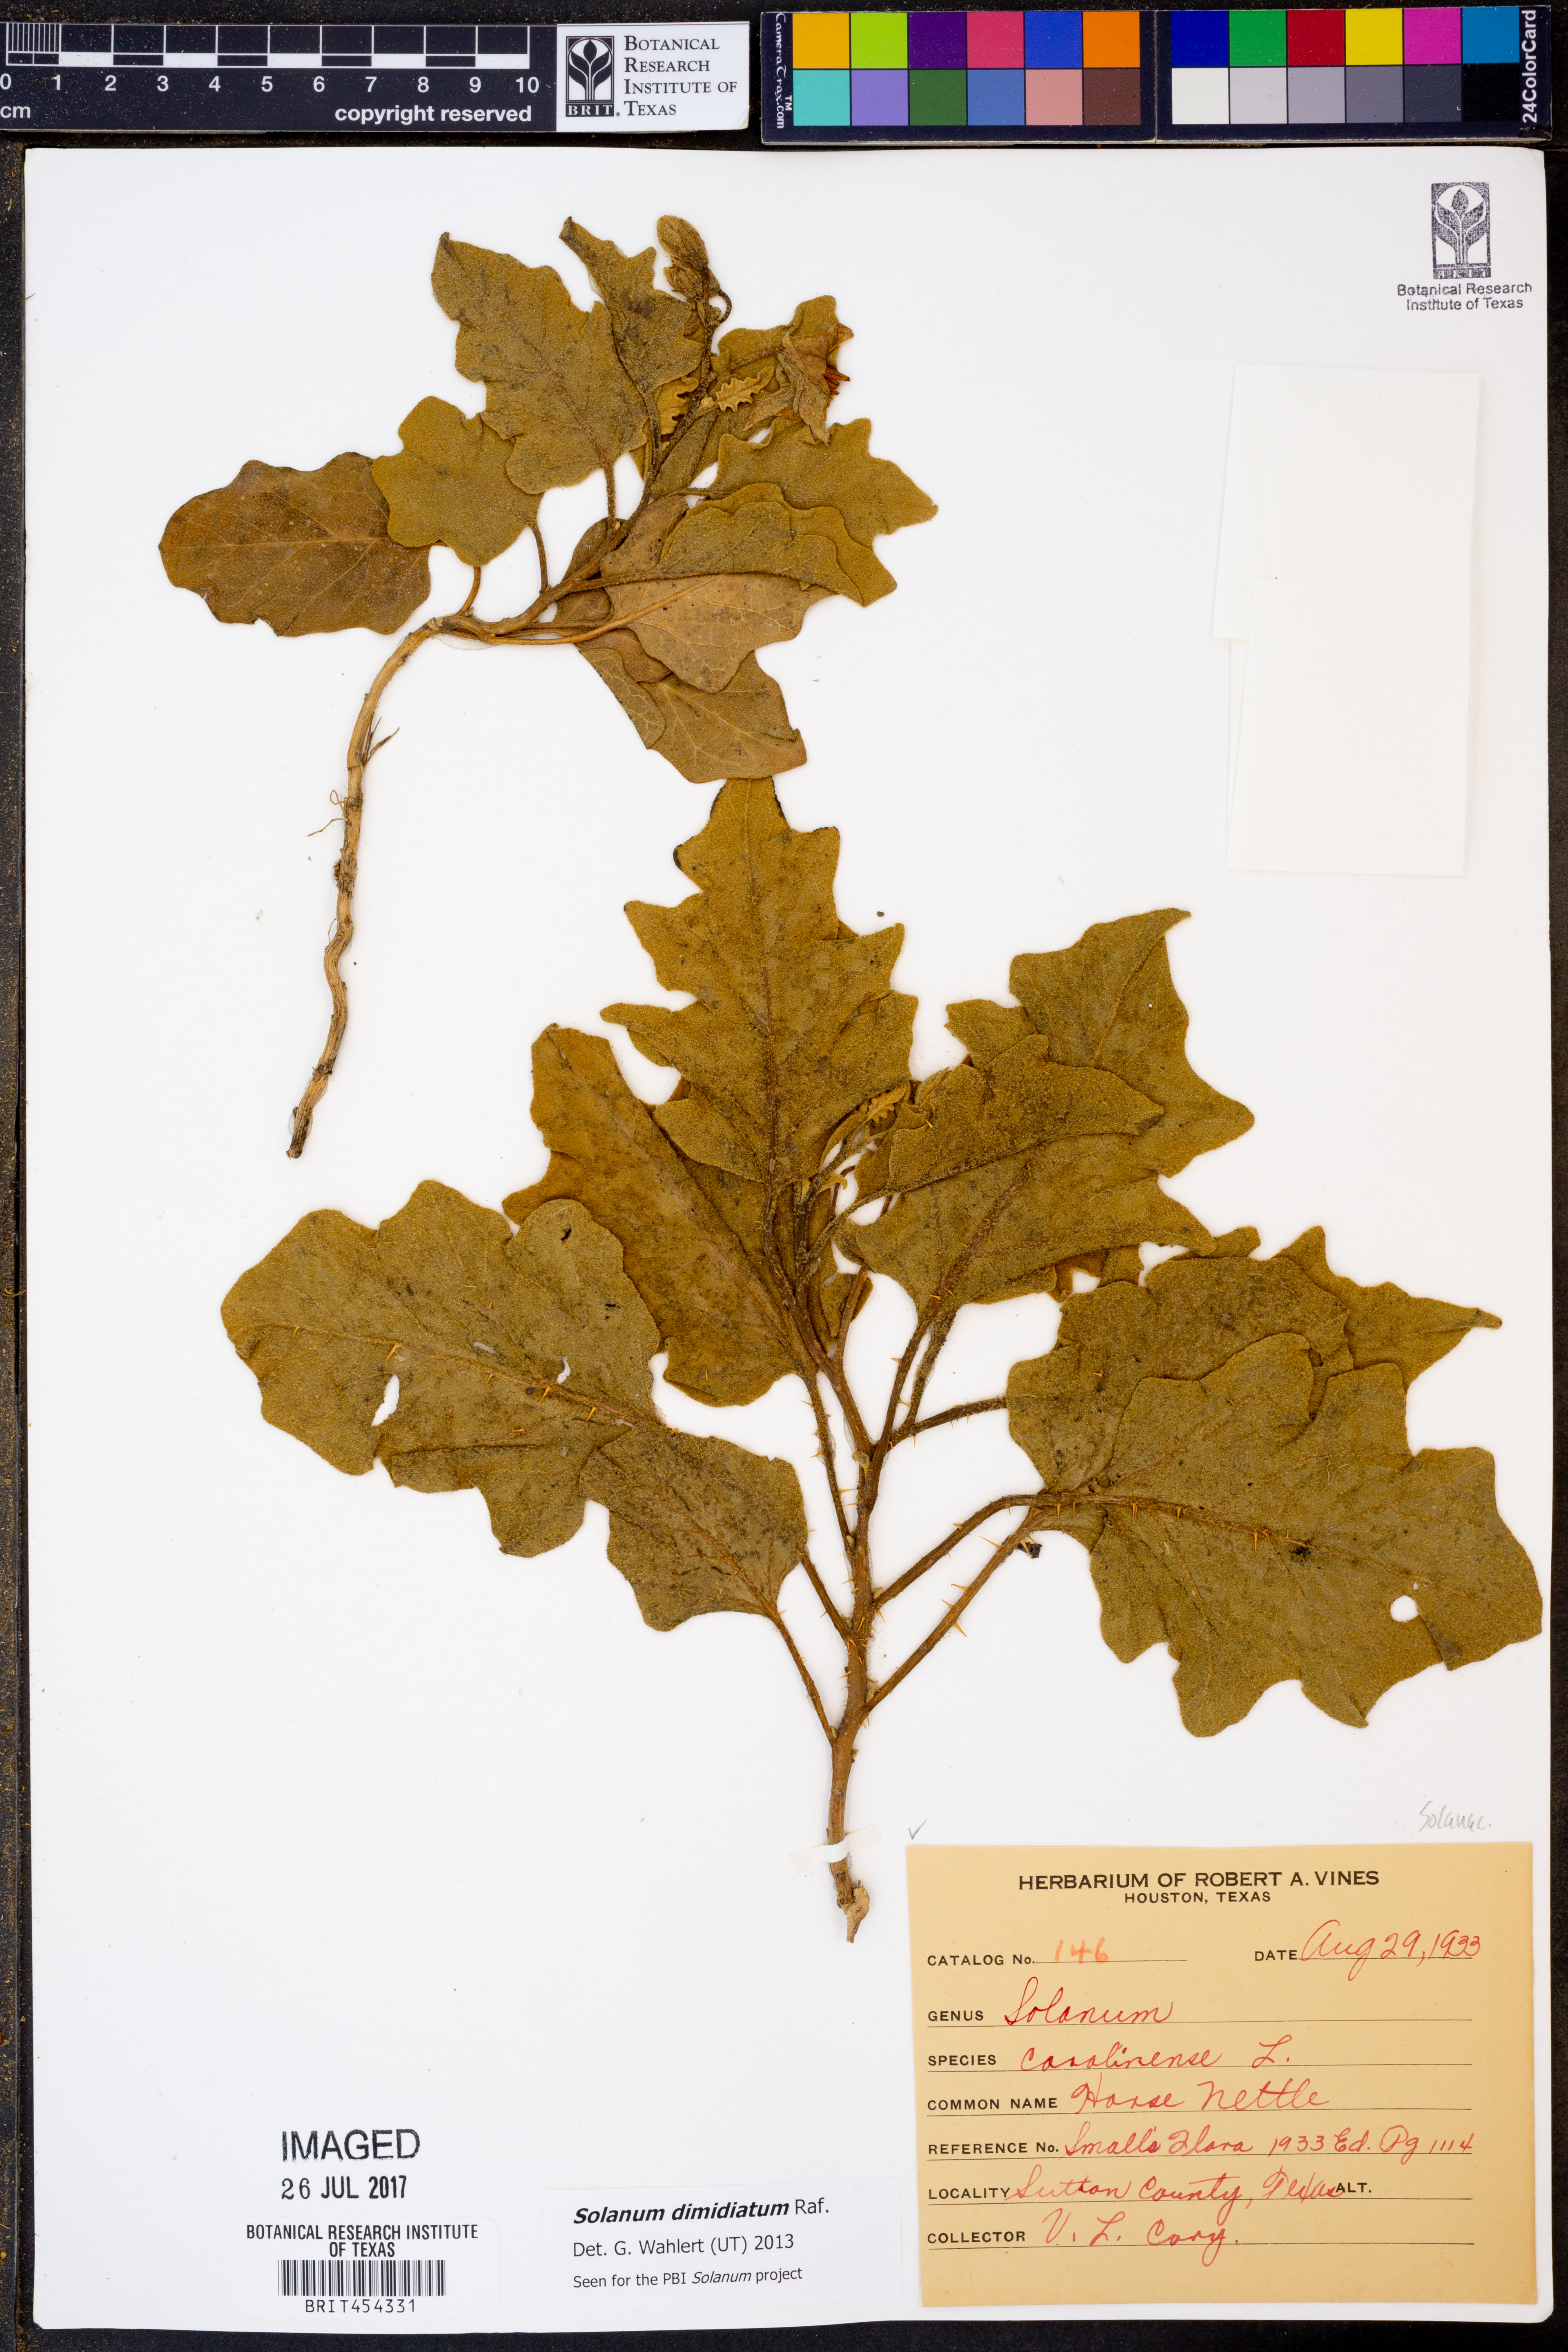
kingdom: Plantae
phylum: Tracheophyta
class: Magnoliopsida
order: Solanales
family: Solanaceae
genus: Solanum
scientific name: Solanum dimidiatum
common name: Carolina horse-nettle
